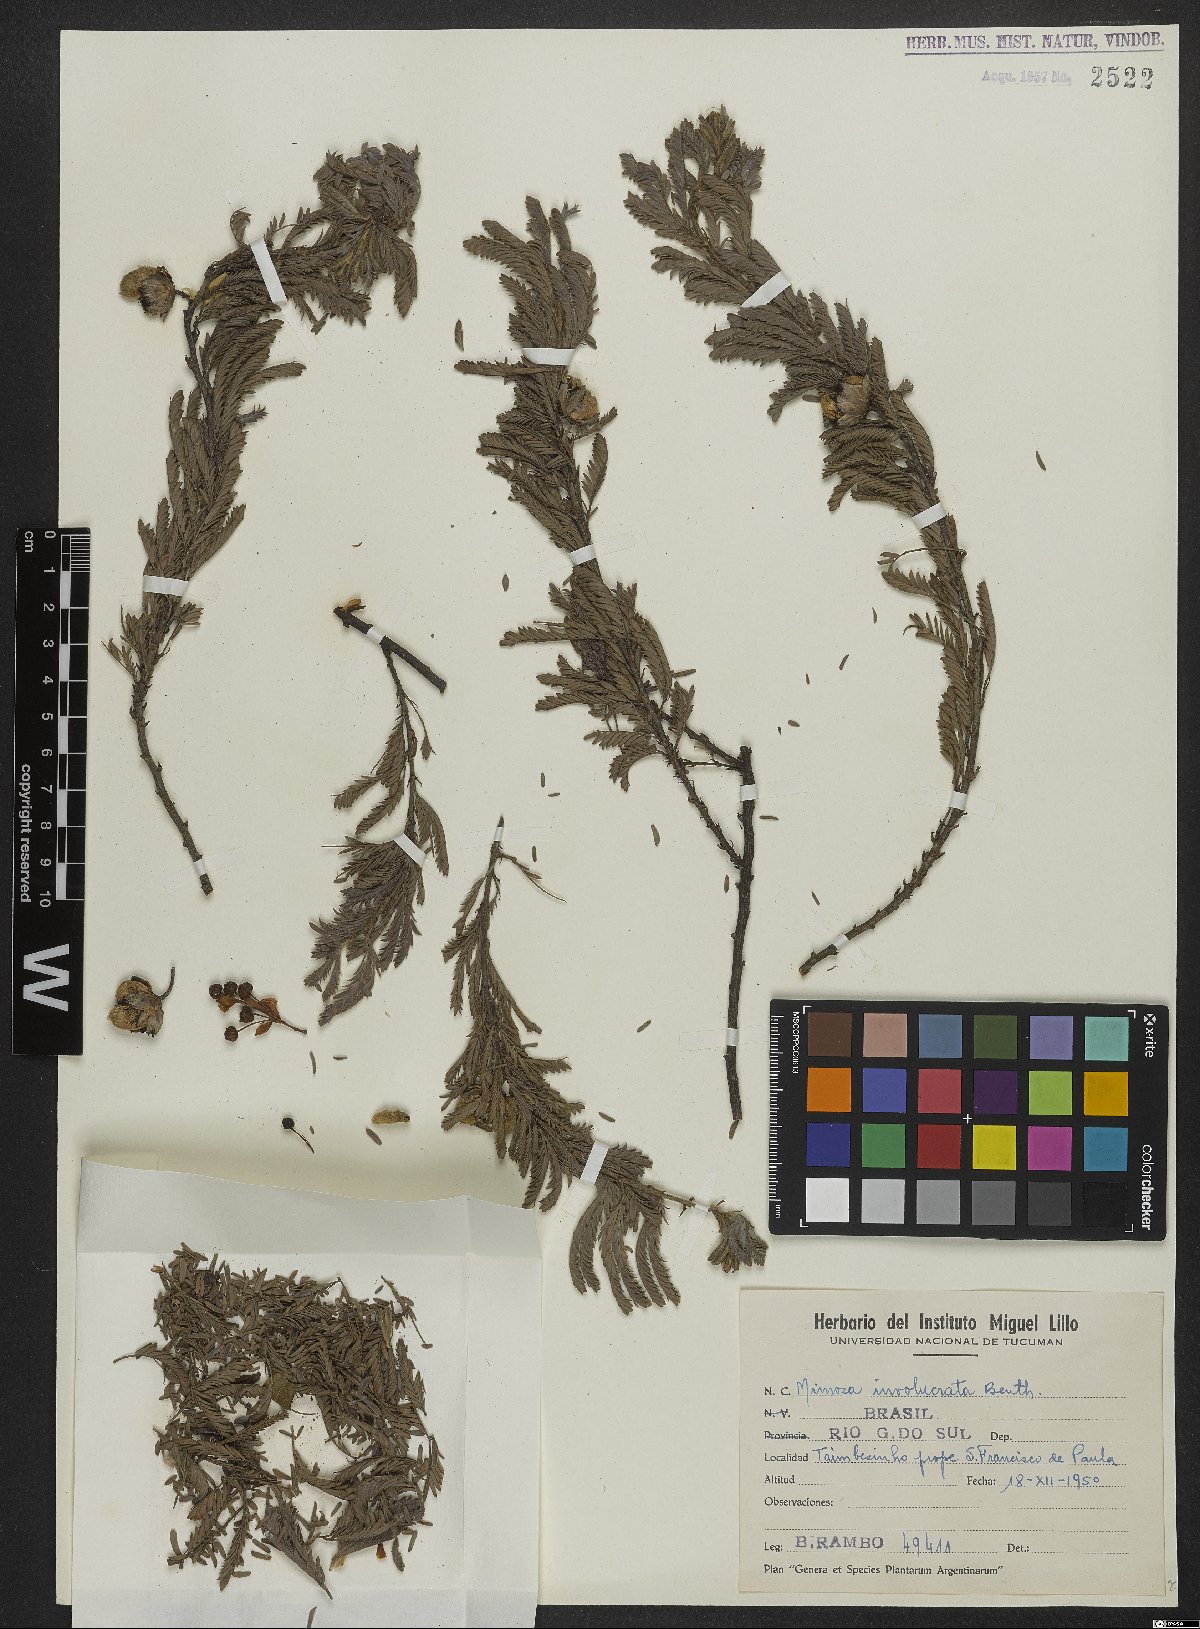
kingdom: Plantae
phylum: Tracheophyta
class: Magnoliopsida
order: Fabales
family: Fabaceae
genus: Mimosa
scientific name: Mimosa involucrata
